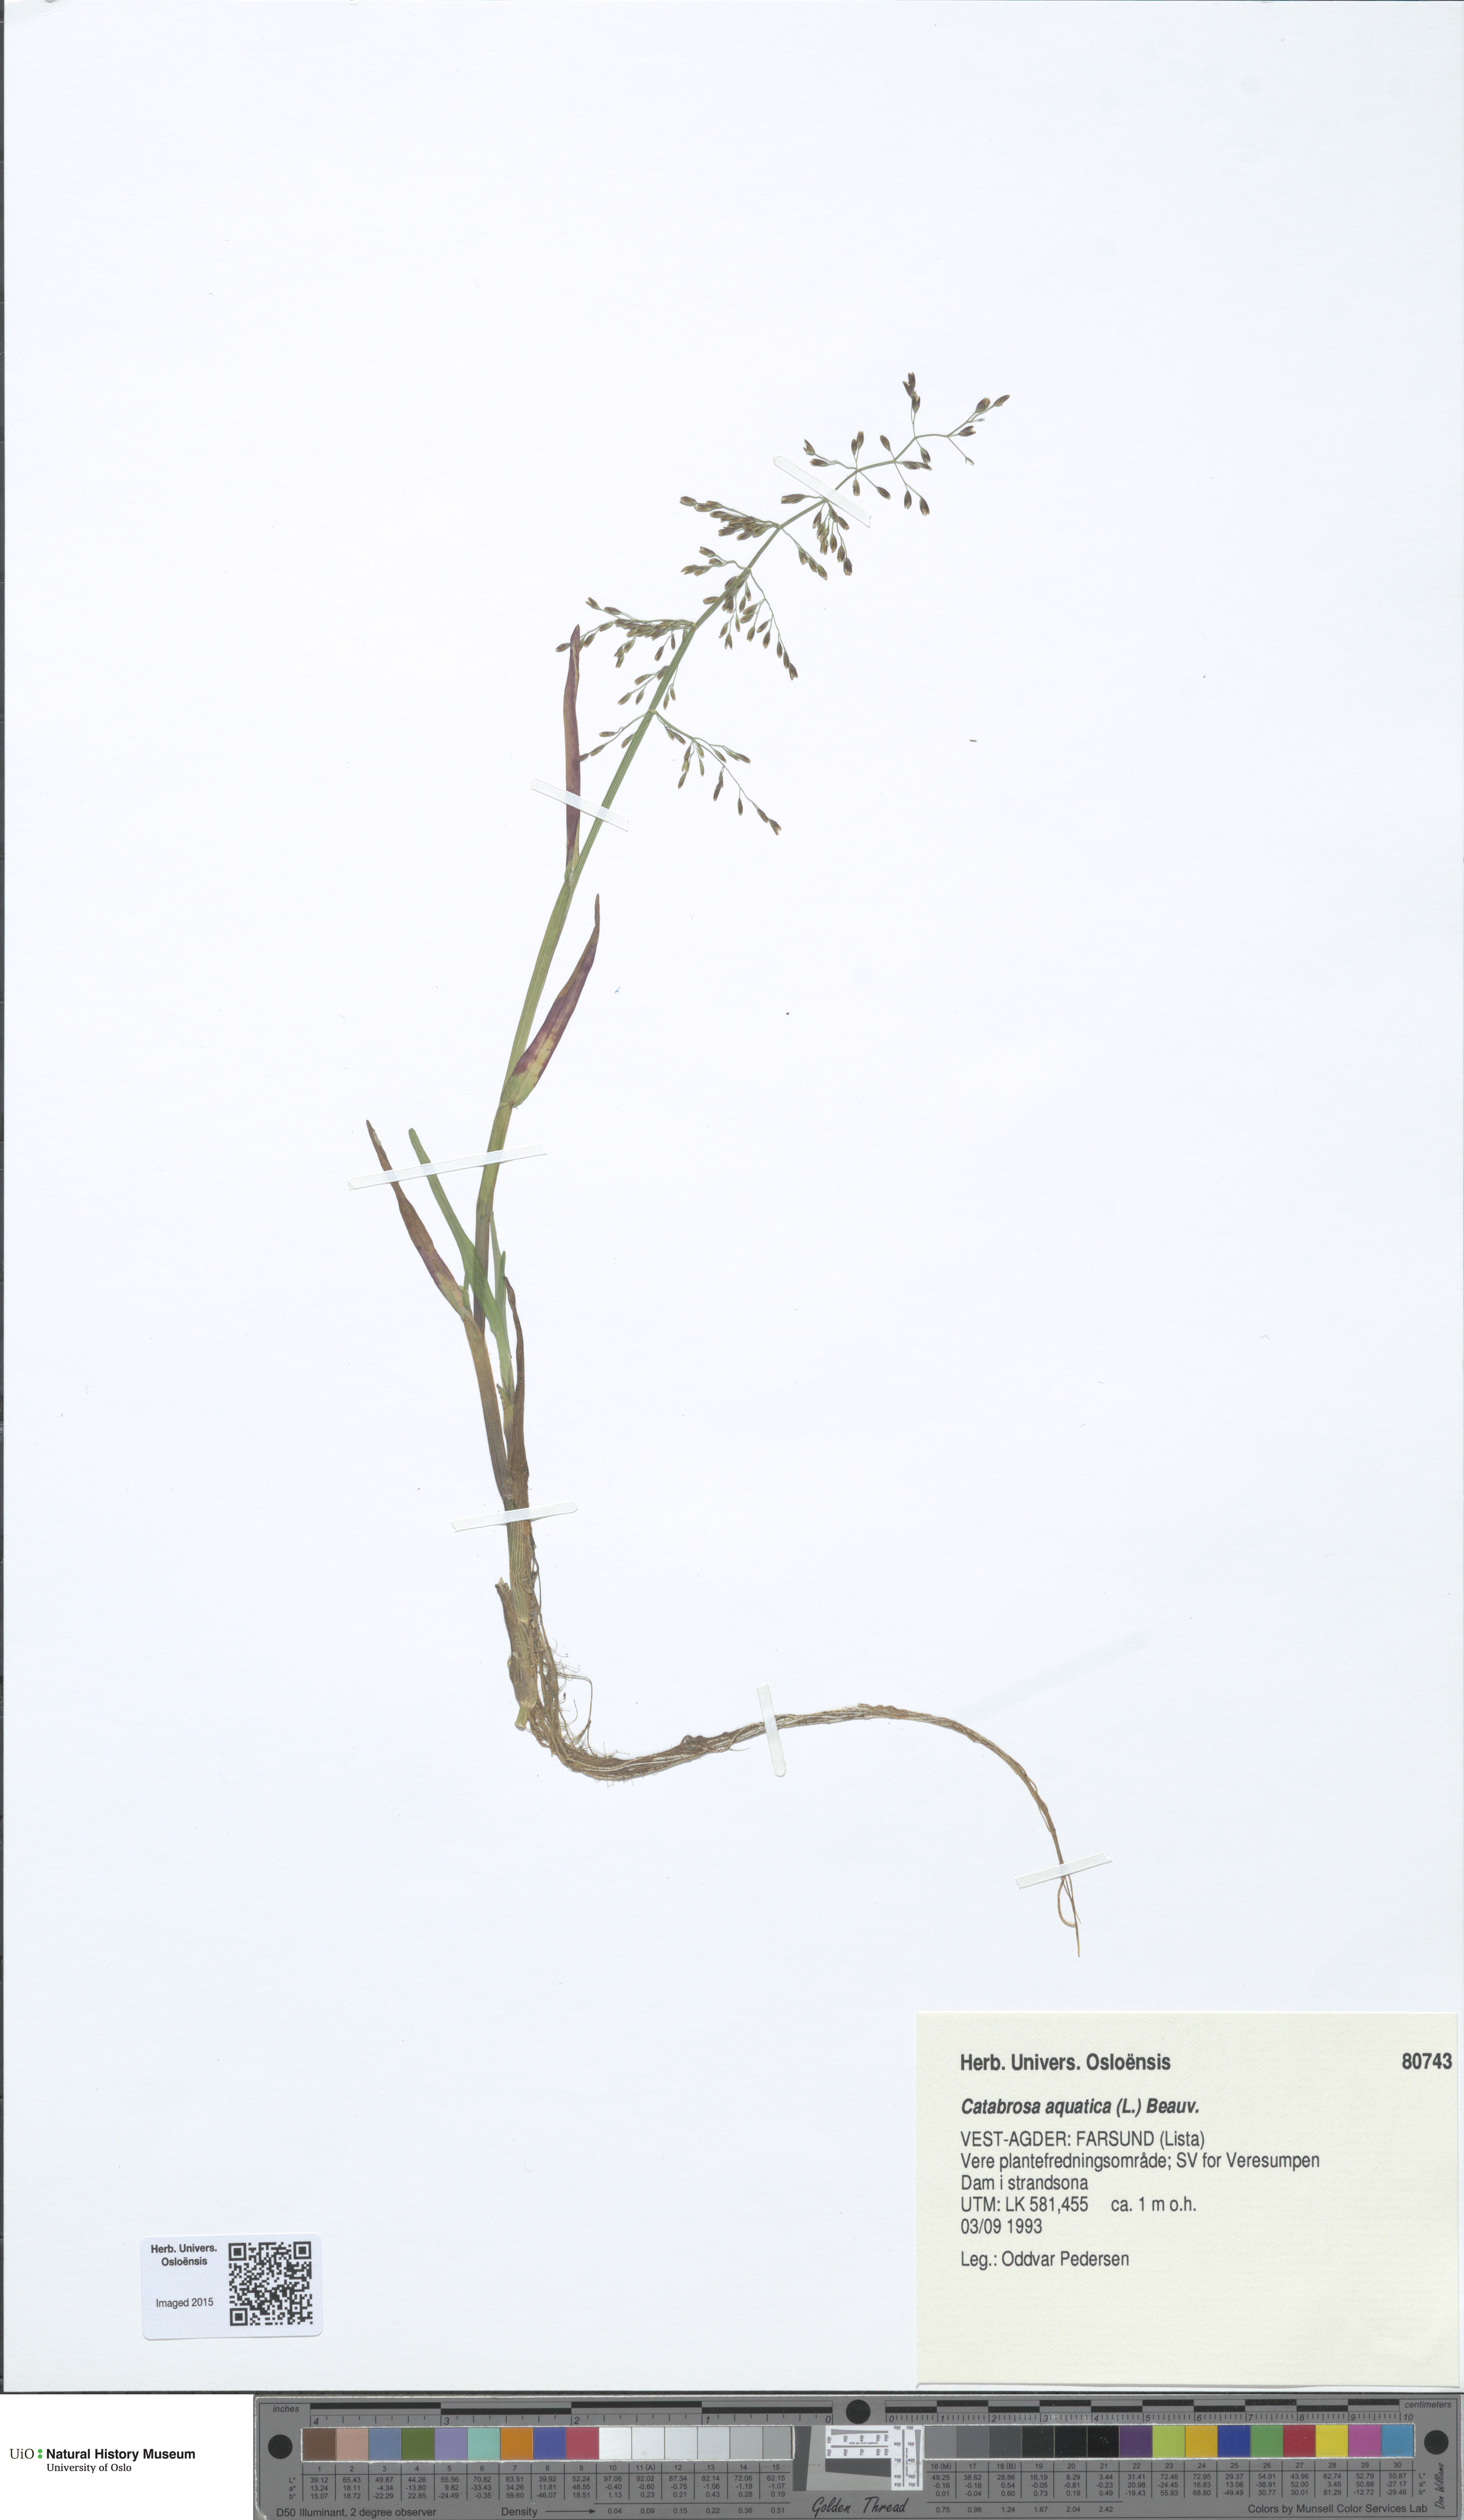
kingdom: Plantae
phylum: Tracheophyta
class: Liliopsida
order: Poales
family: Poaceae
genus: Catabrosa
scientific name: Catabrosa aquatica
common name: Whorl-grass
